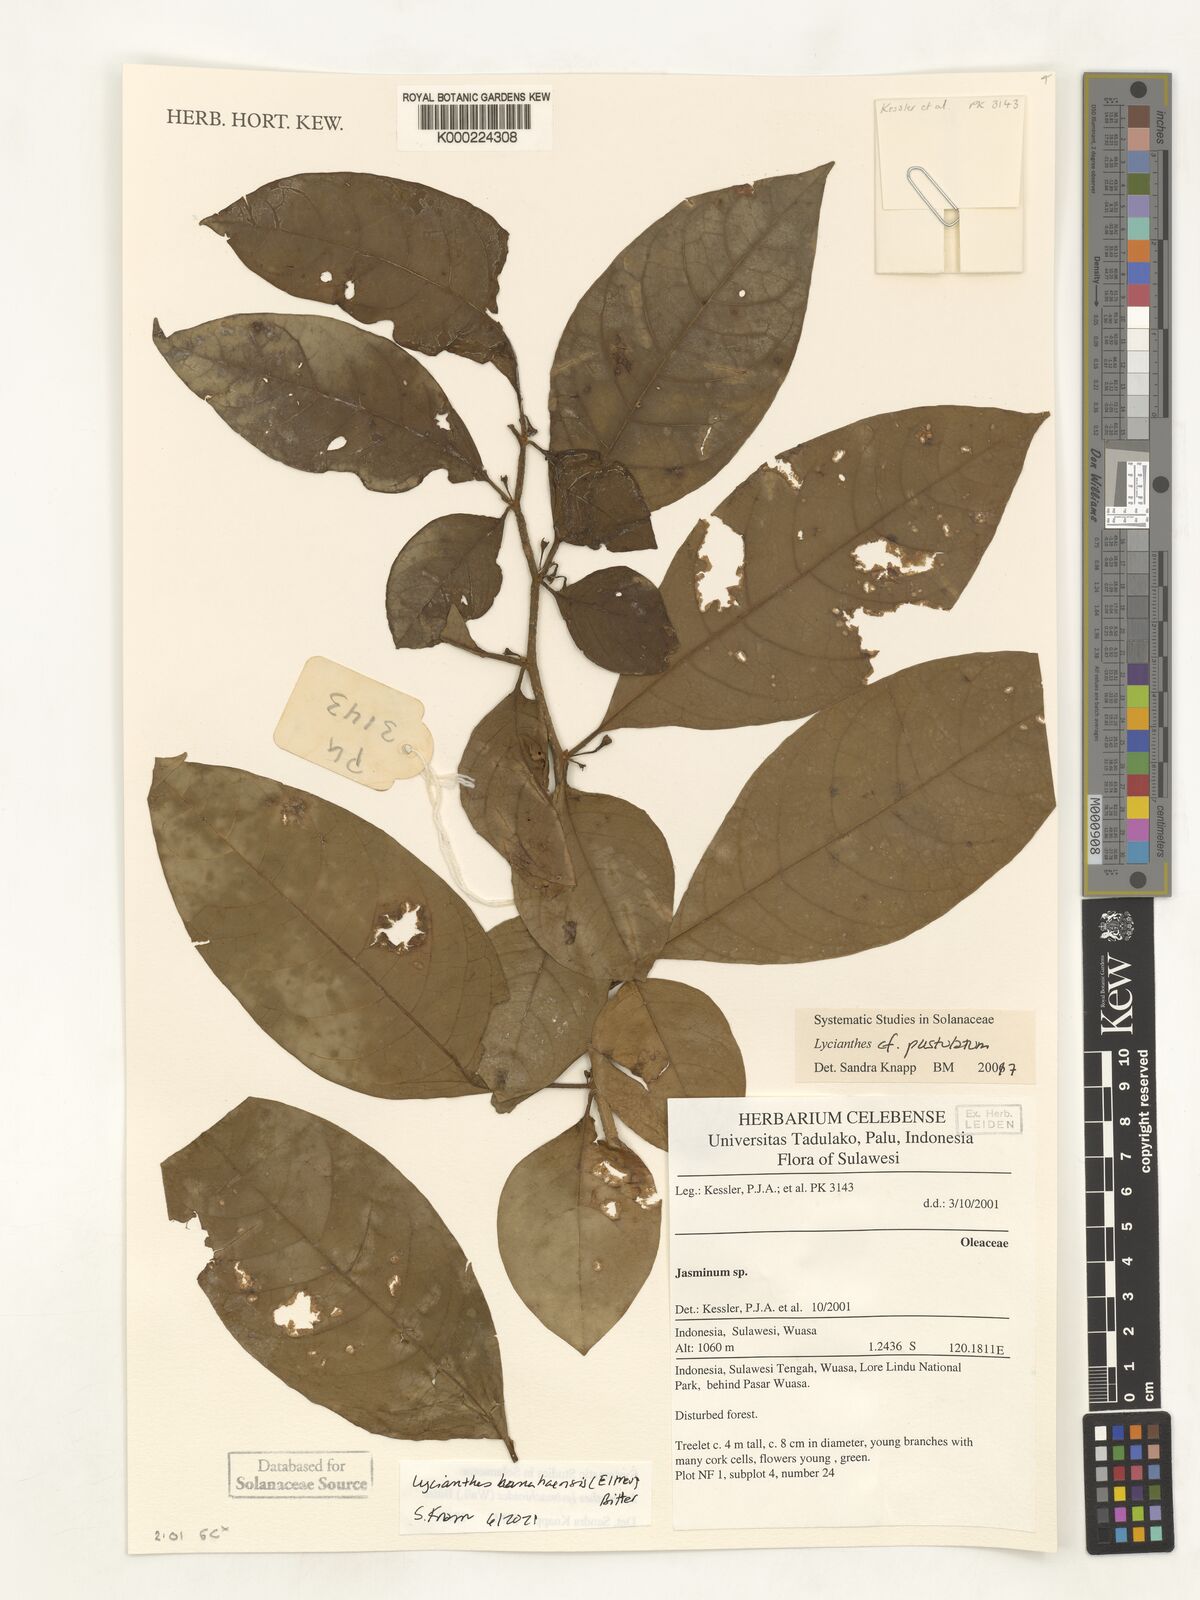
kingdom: Plantae
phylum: Tracheophyta
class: Magnoliopsida
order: Solanales
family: Solanaceae
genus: Lycianthes
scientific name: Lycianthes rostellata
